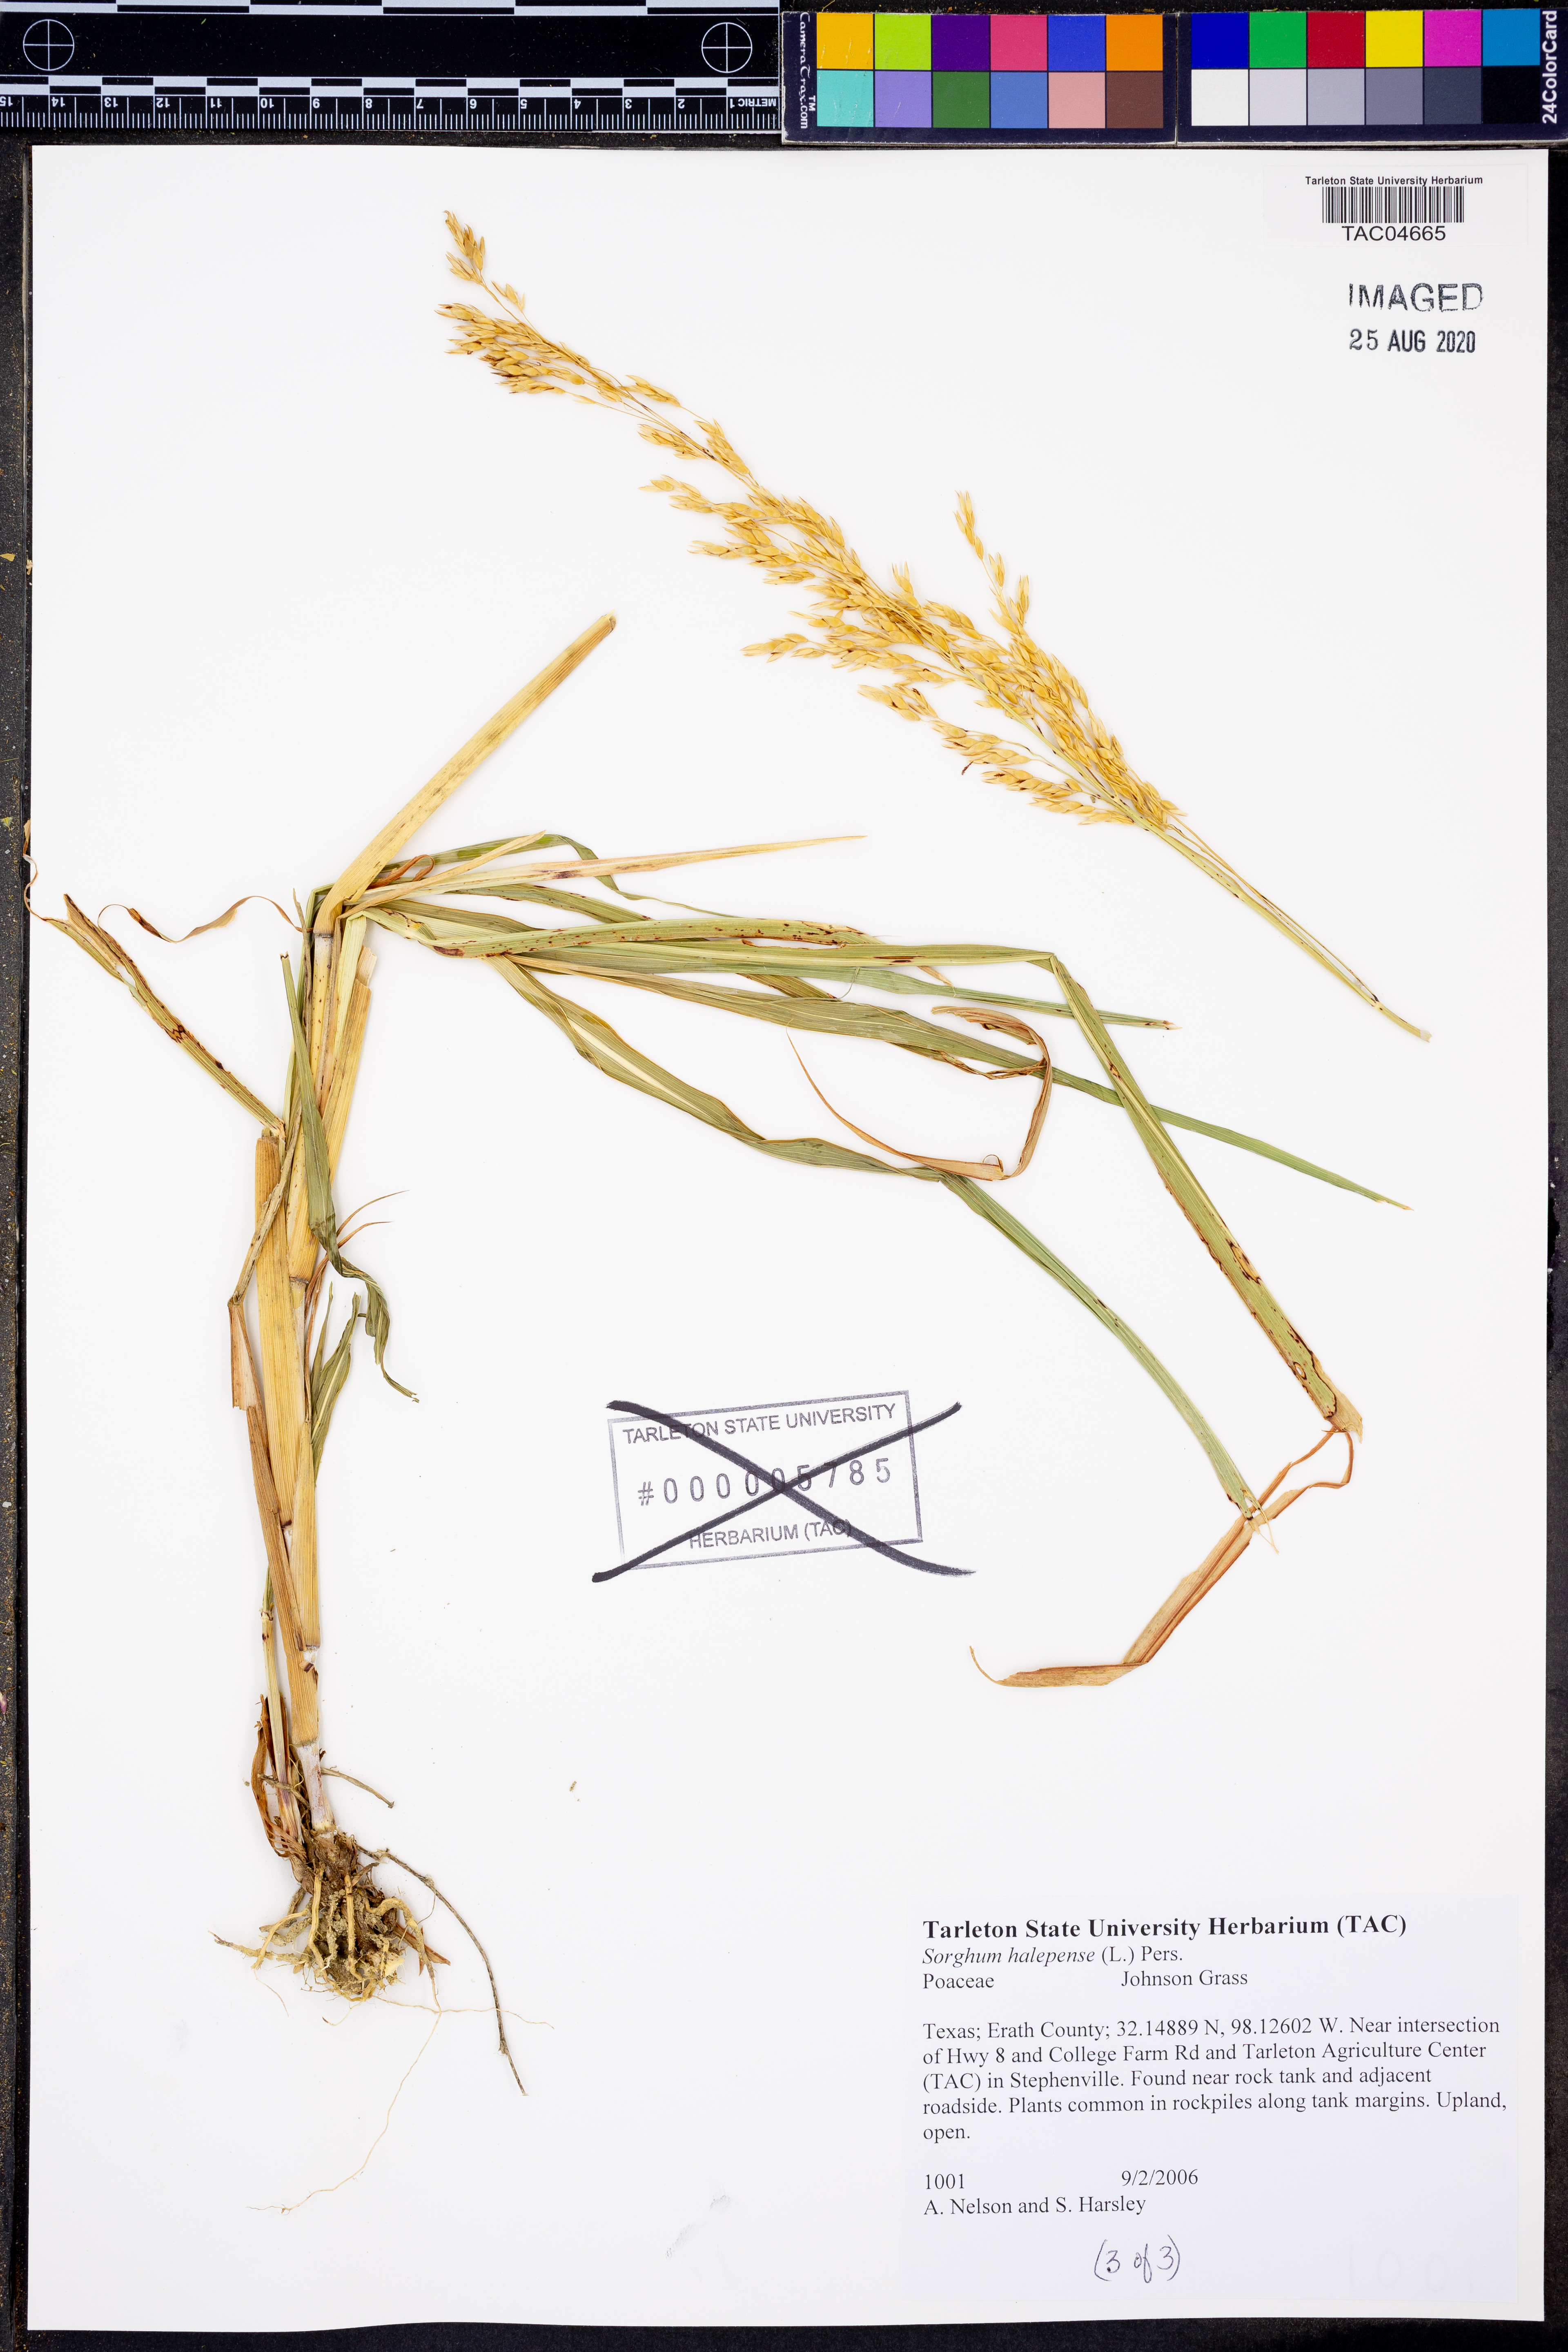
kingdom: Plantae
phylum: Tracheophyta
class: Liliopsida
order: Poales
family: Poaceae
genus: Sorghum
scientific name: Sorghum halepense
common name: Johnson-grass
